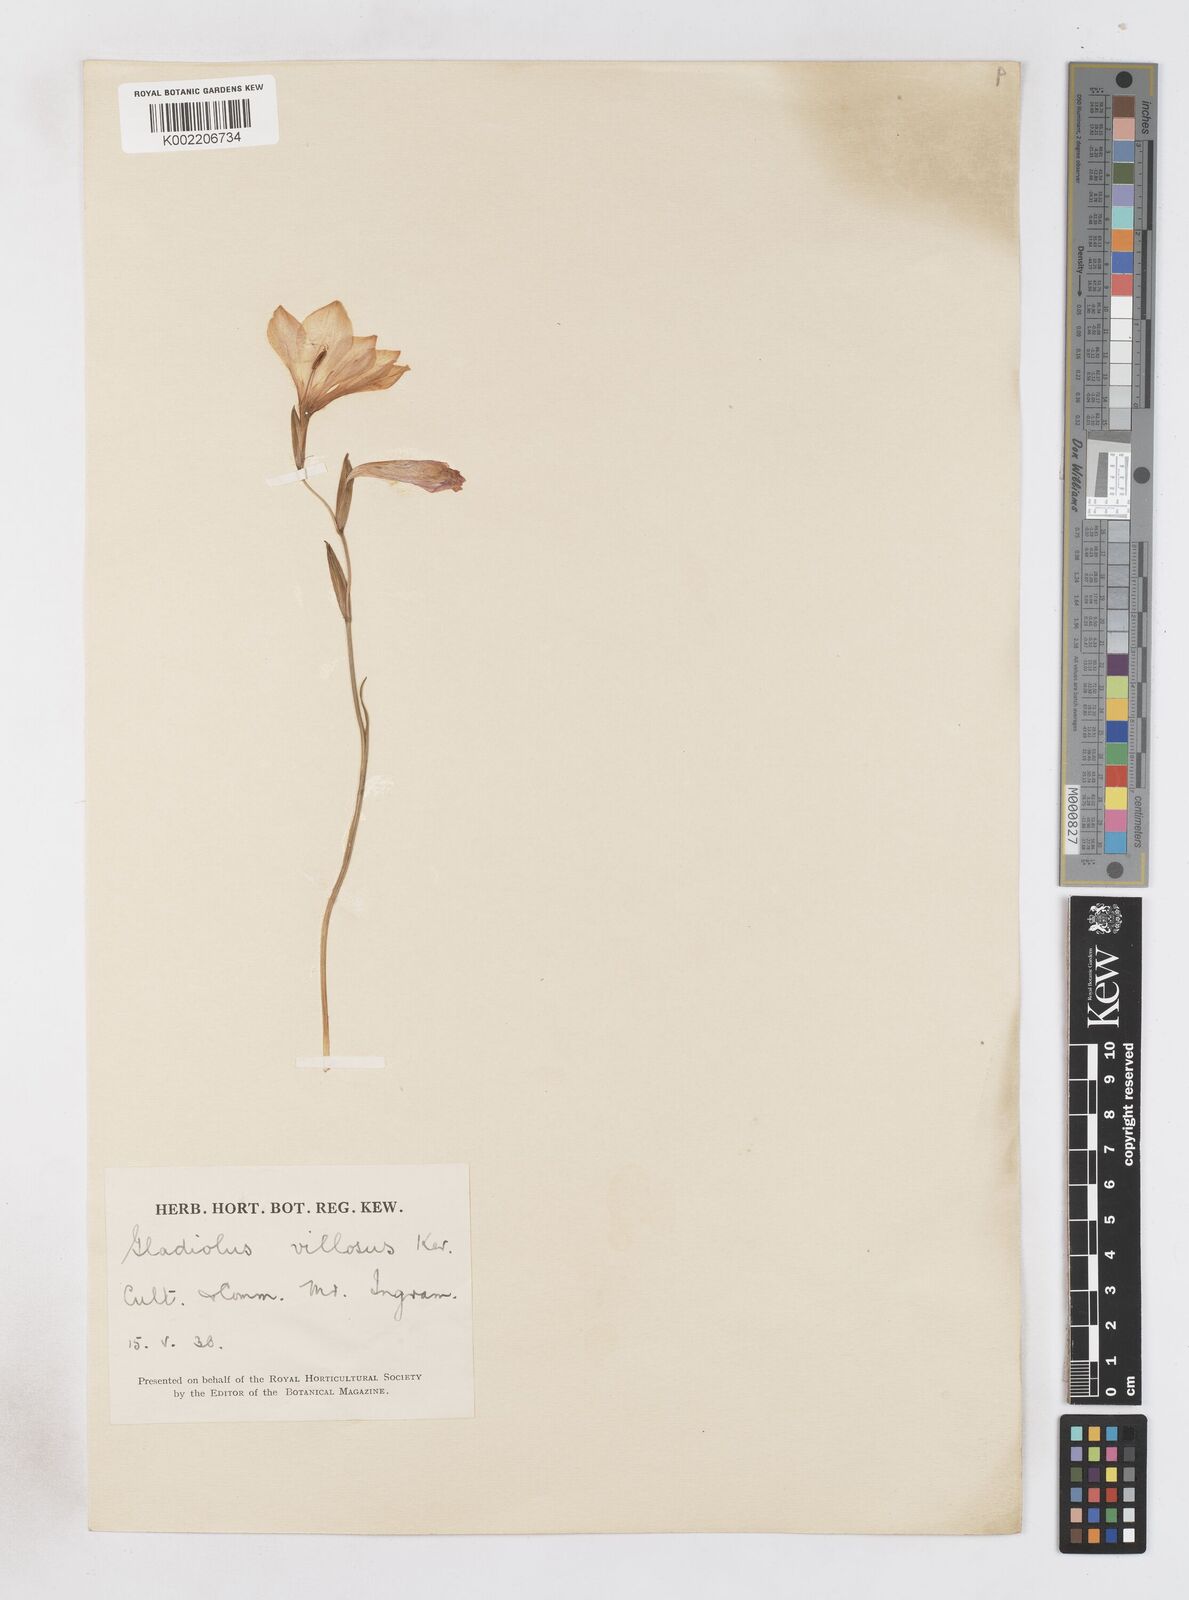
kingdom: Plantae
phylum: Tracheophyta
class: Liliopsida
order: Asparagales
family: Iridaceae
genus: Gladiolus
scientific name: Gladiolus hirsutus
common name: Small pink afrikaner
